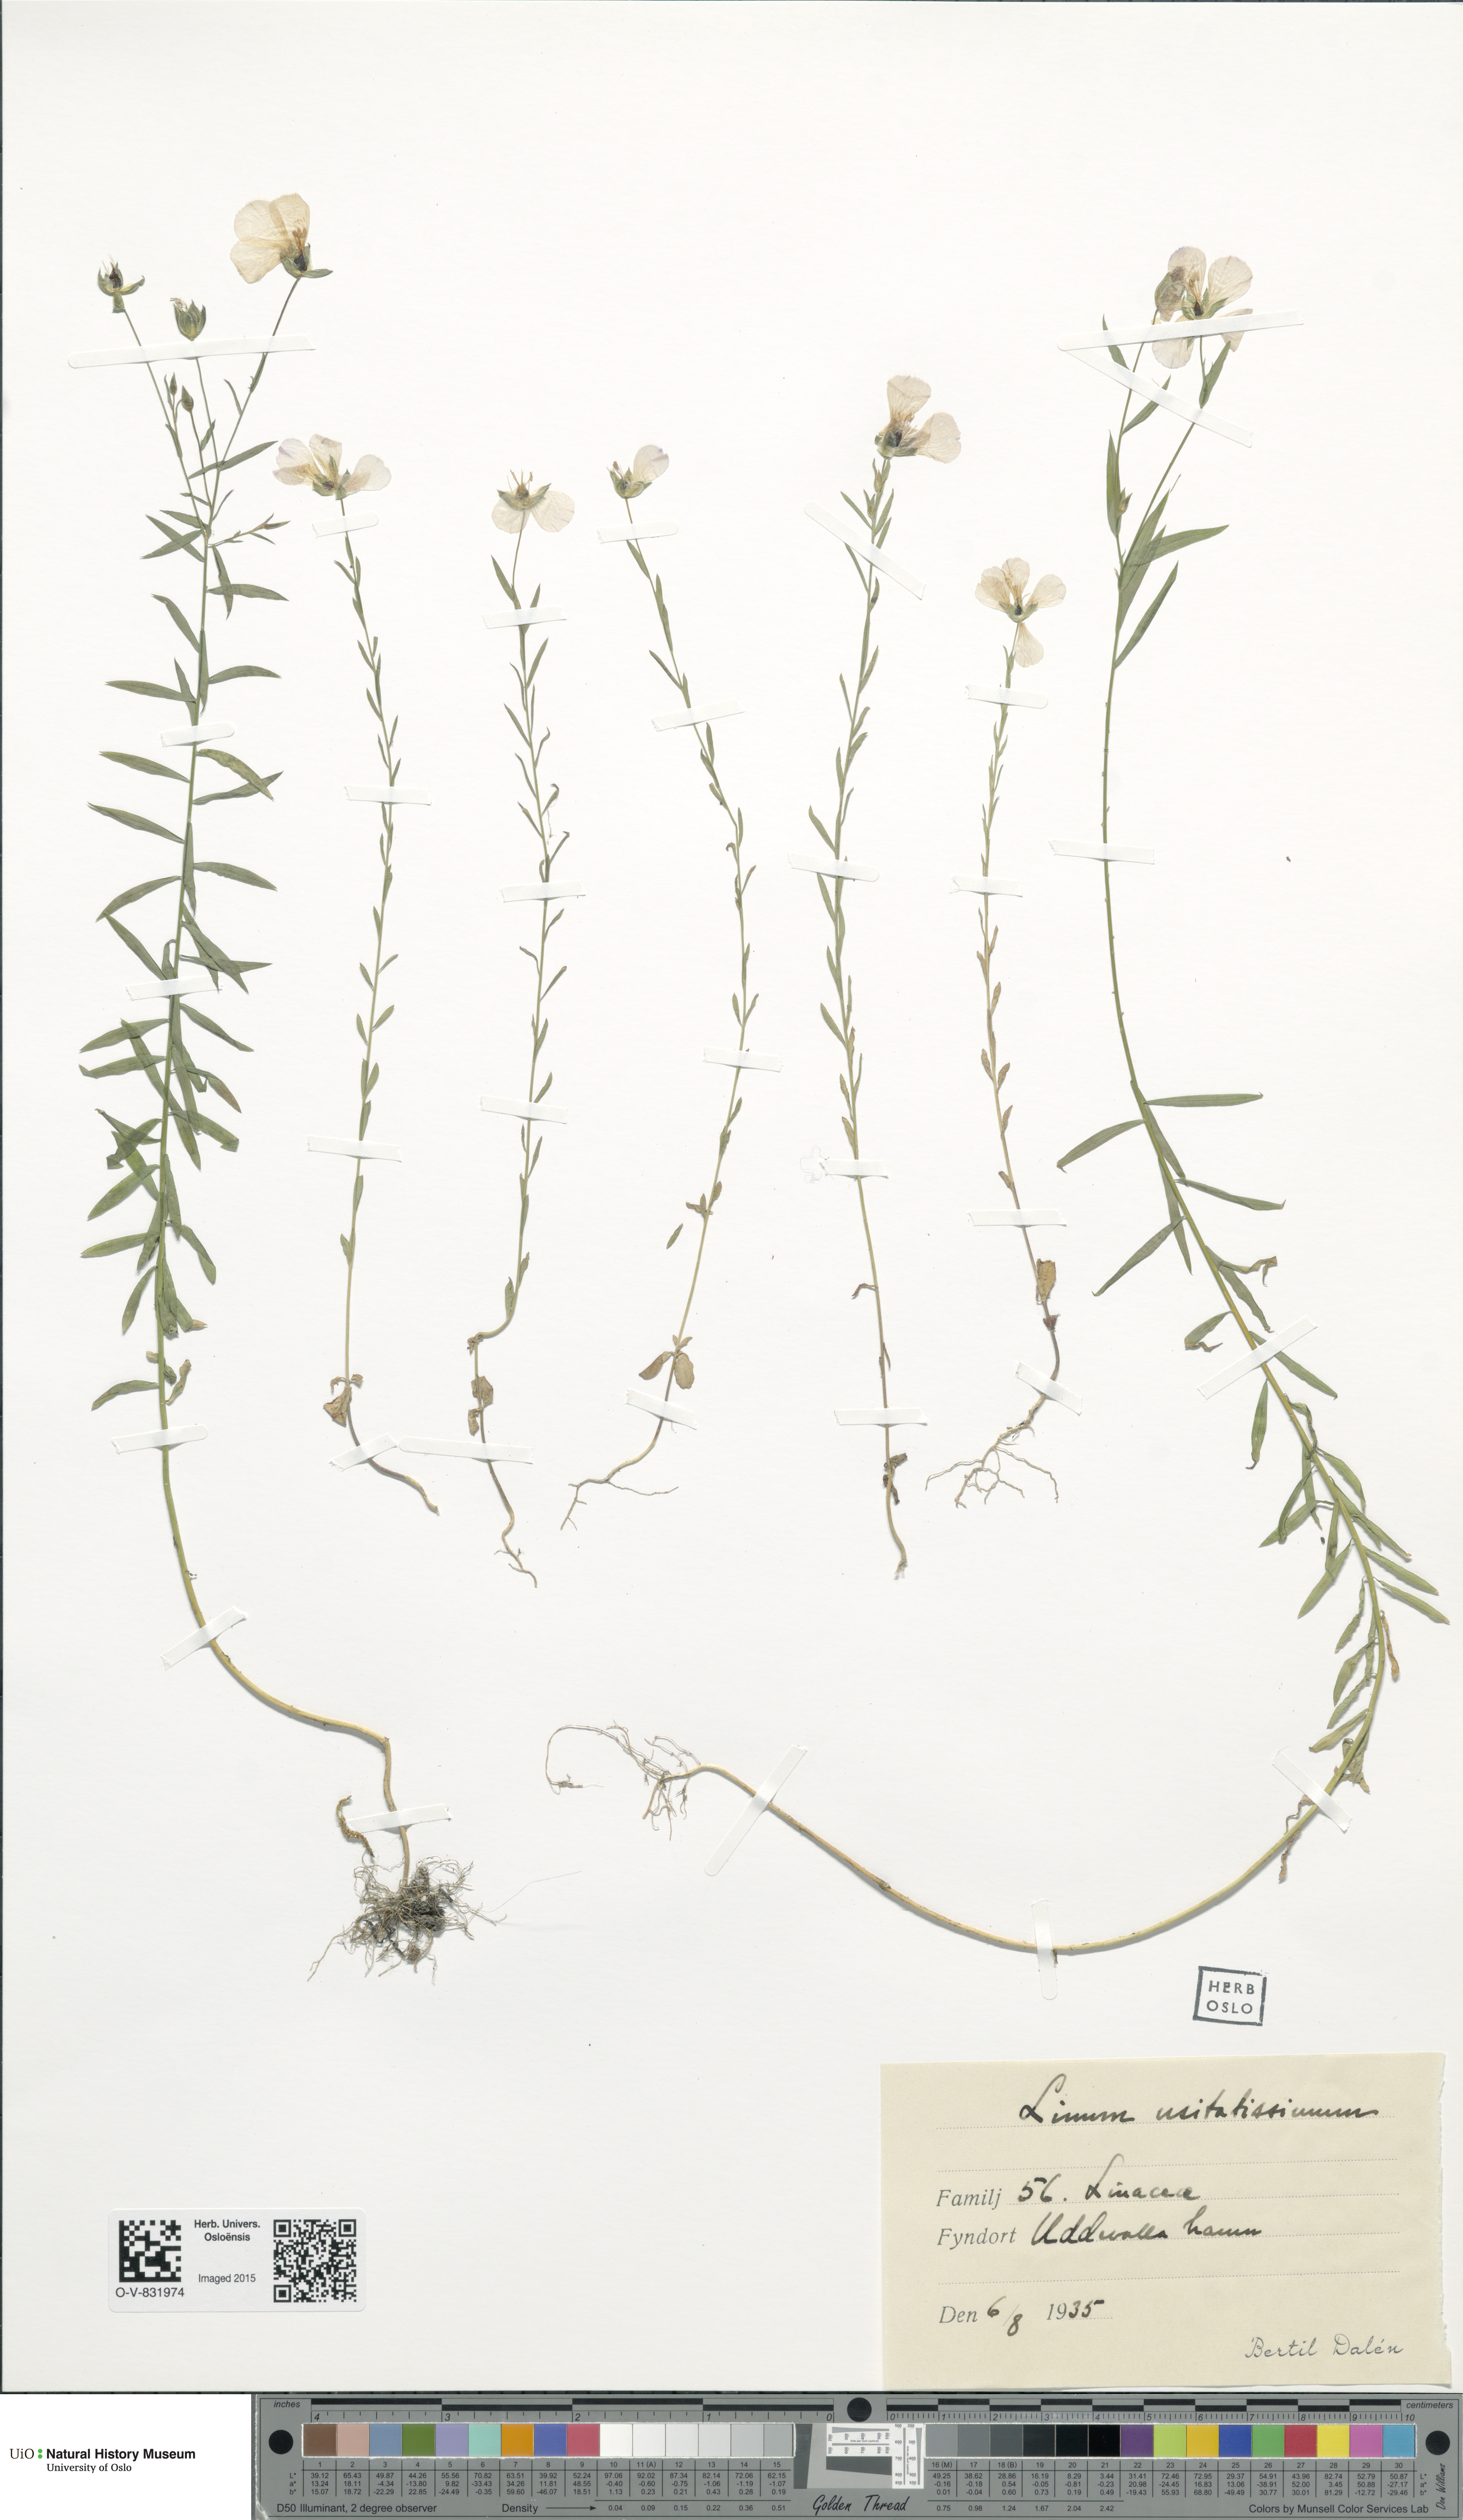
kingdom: Plantae
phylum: Tracheophyta
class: Magnoliopsida
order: Malpighiales
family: Linaceae
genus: Linum
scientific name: Linum usitatissimum
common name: Flax
